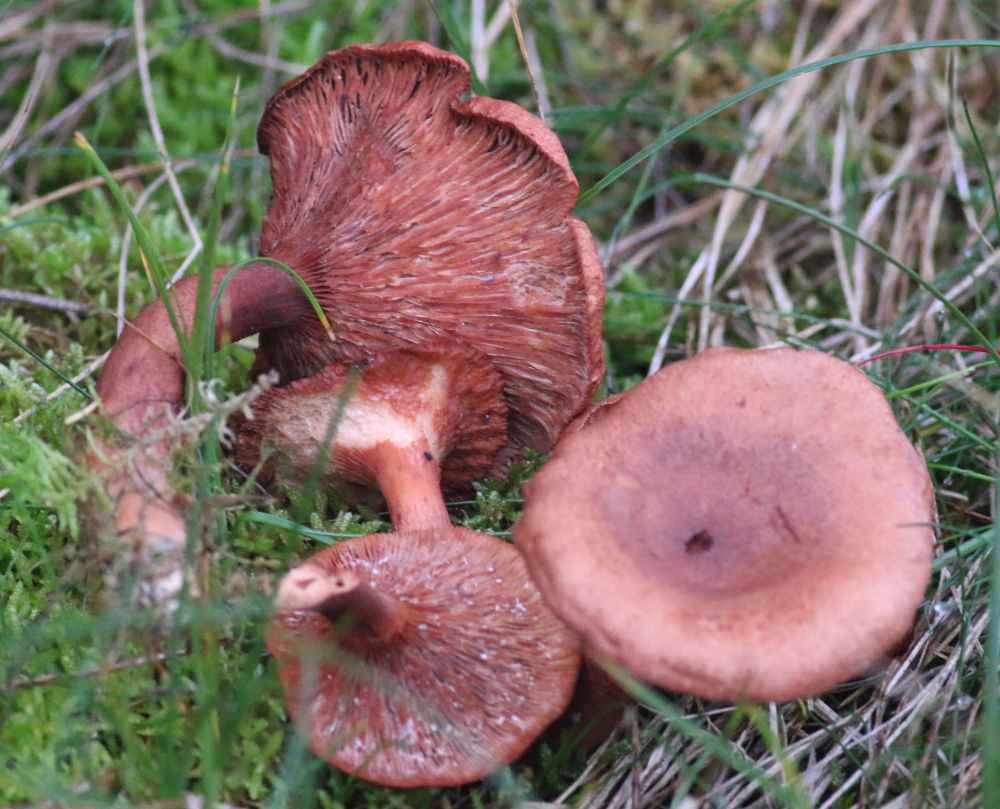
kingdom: Fungi
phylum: Basidiomycota
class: Agaricomycetes
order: Russulales
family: Russulaceae
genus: Lactarius
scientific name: Lactarius rufus
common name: rødbrun mælkehat
